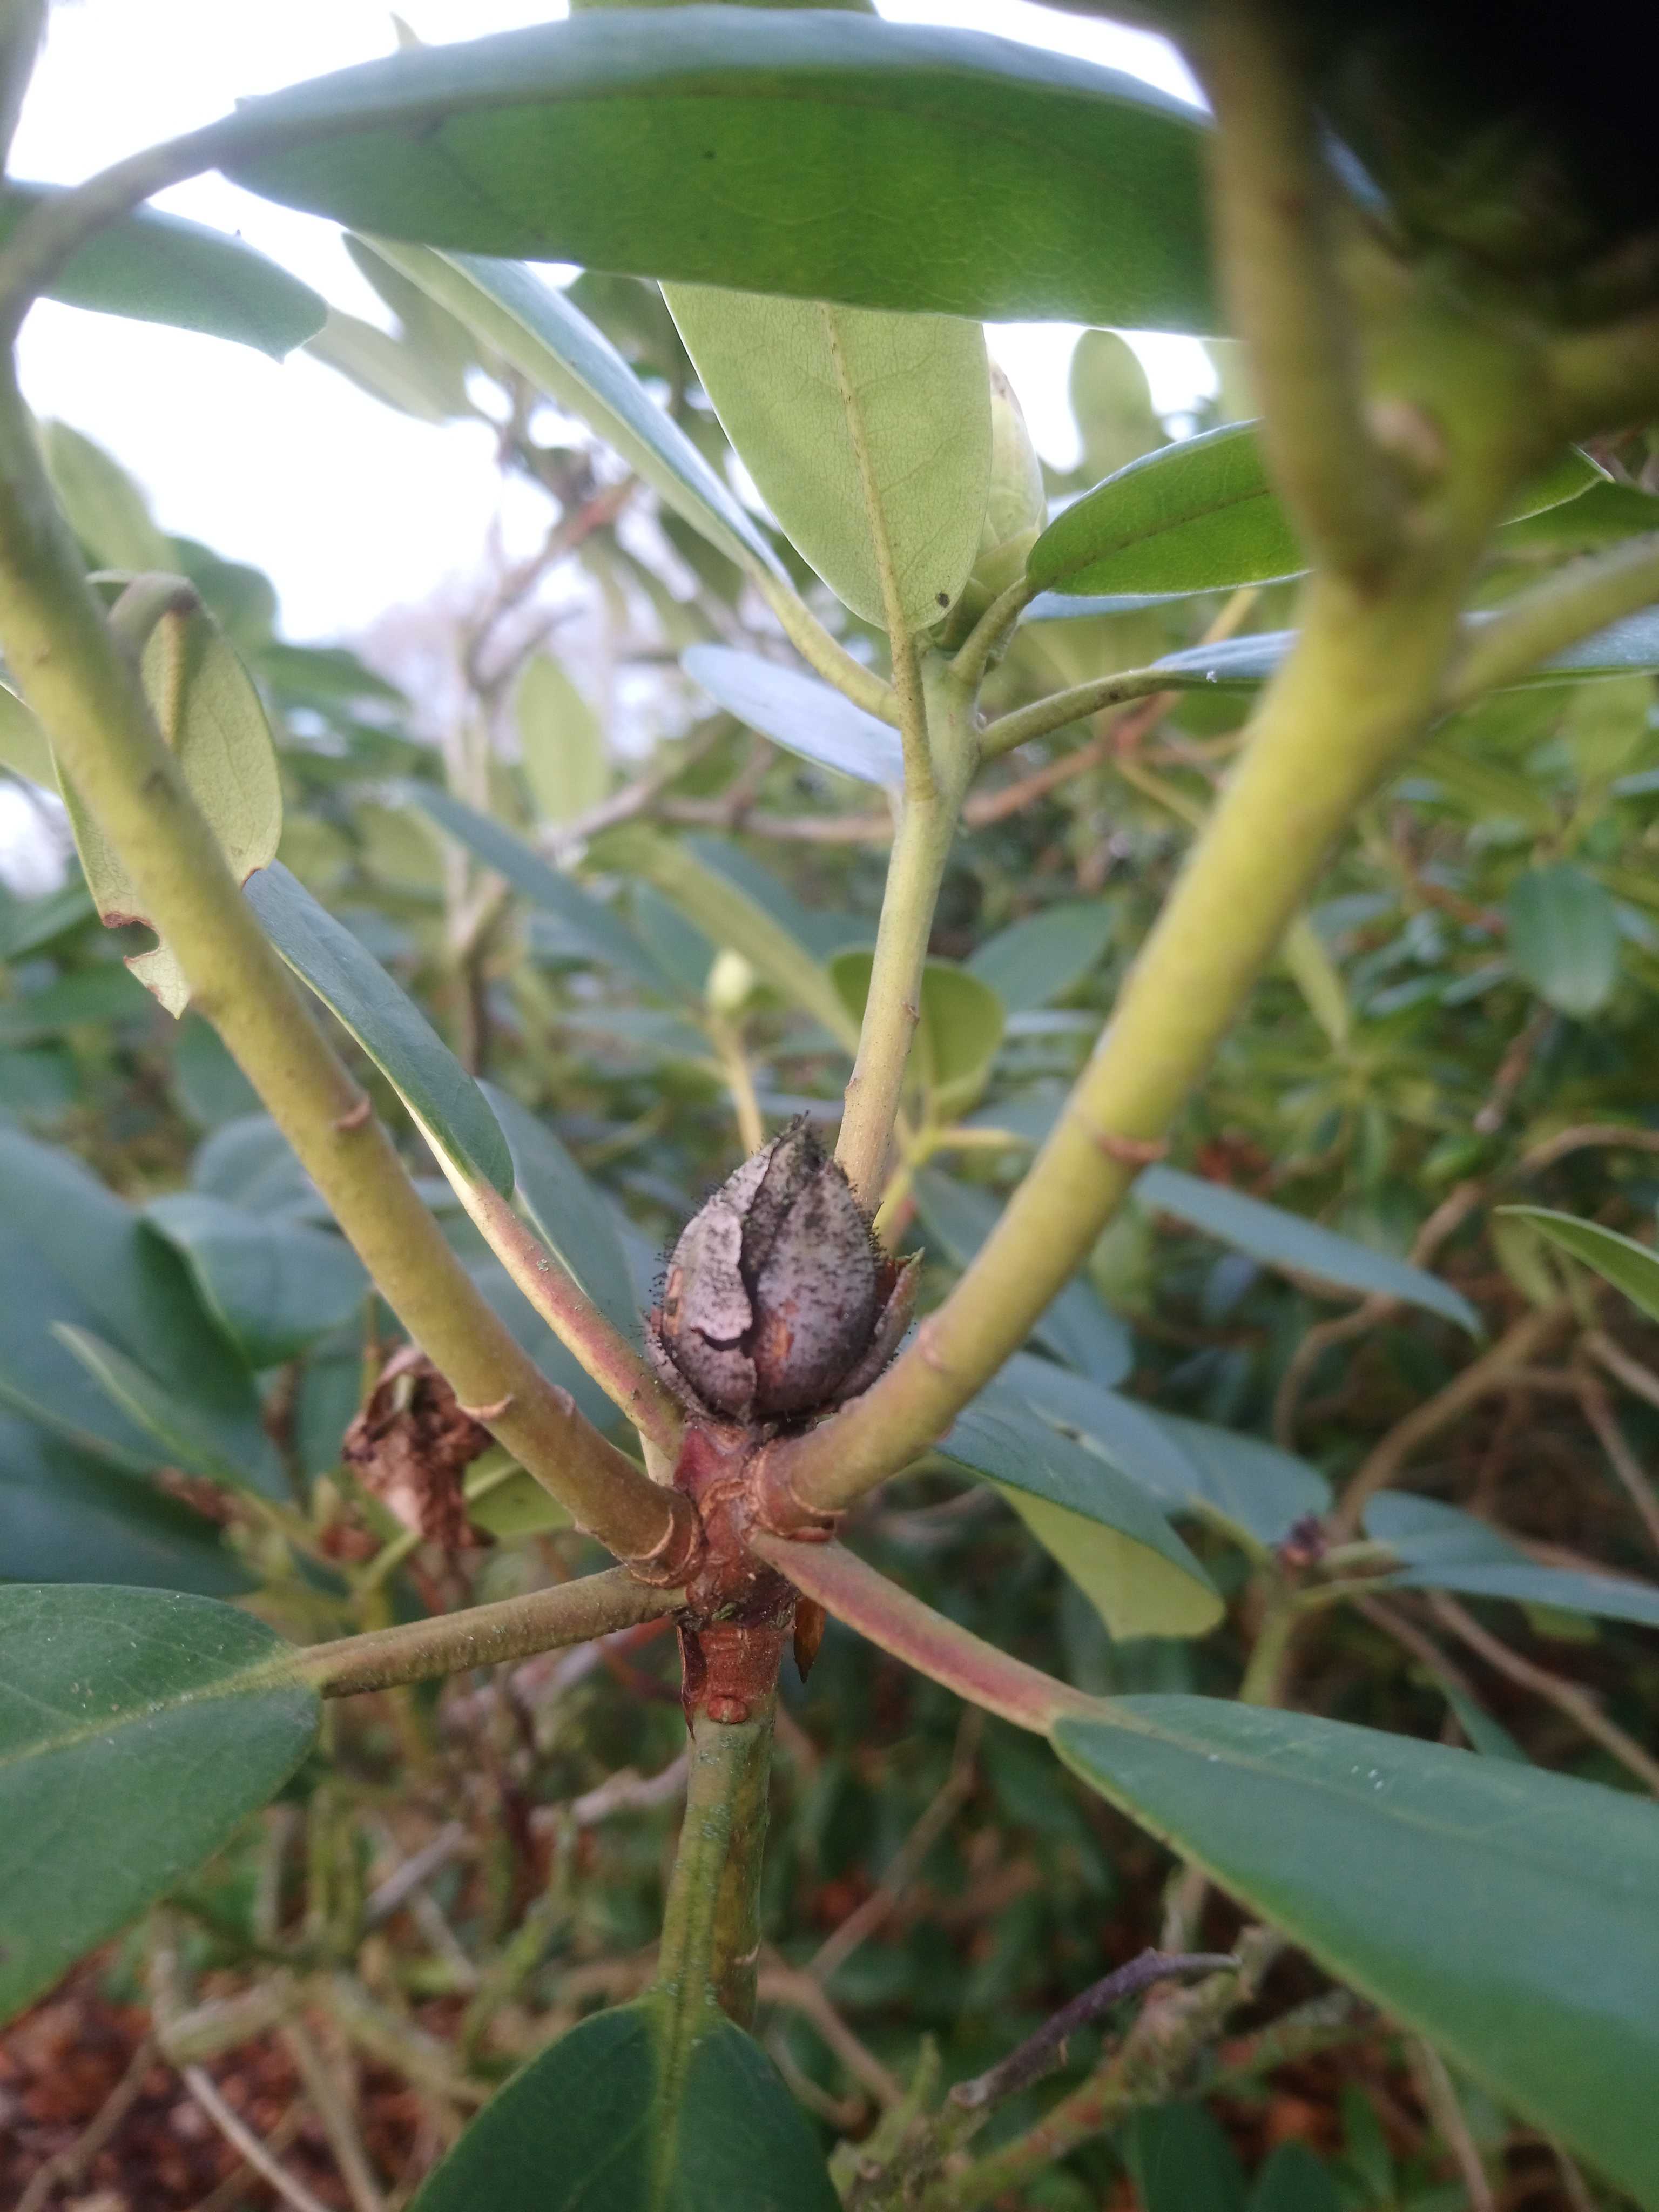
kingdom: Fungi
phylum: Ascomycota
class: Dothideomycetes
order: Pleosporales
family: Melanommataceae
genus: Seifertia
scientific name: Seifertia azaleae
